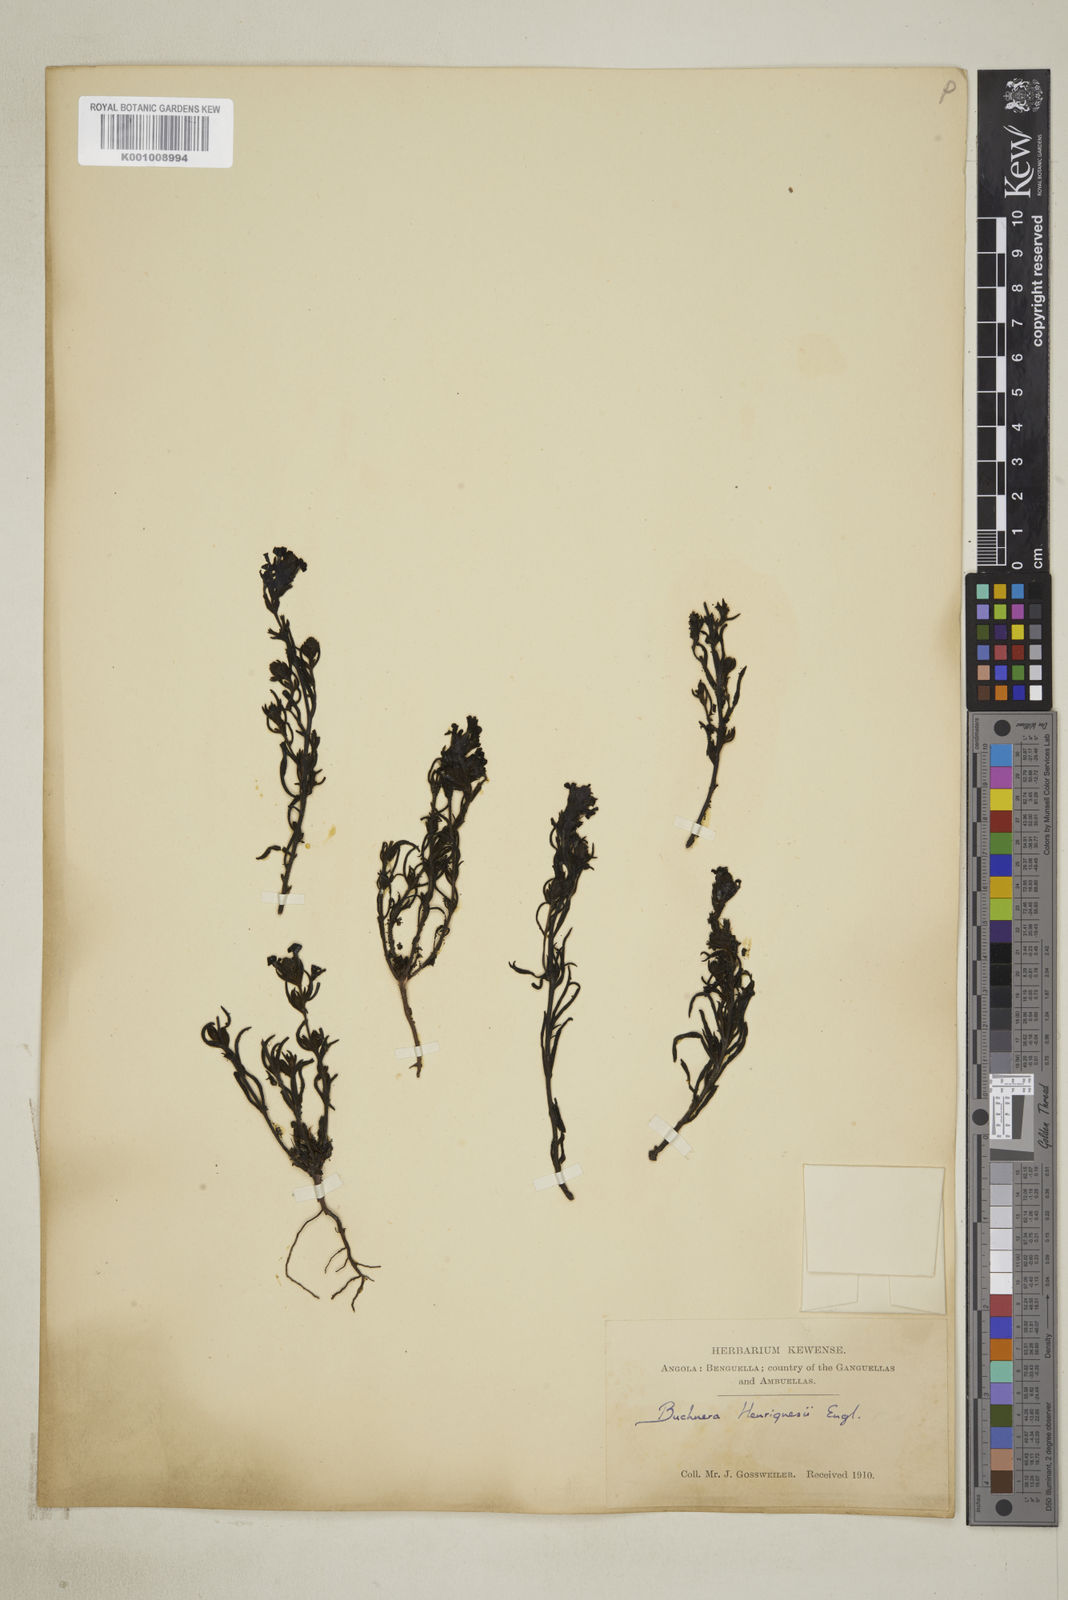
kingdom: Plantae
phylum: Tracheophyta
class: Magnoliopsida
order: Lamiales
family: Orobanchaceae
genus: Buchnera
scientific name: Buchnera henriquesii
